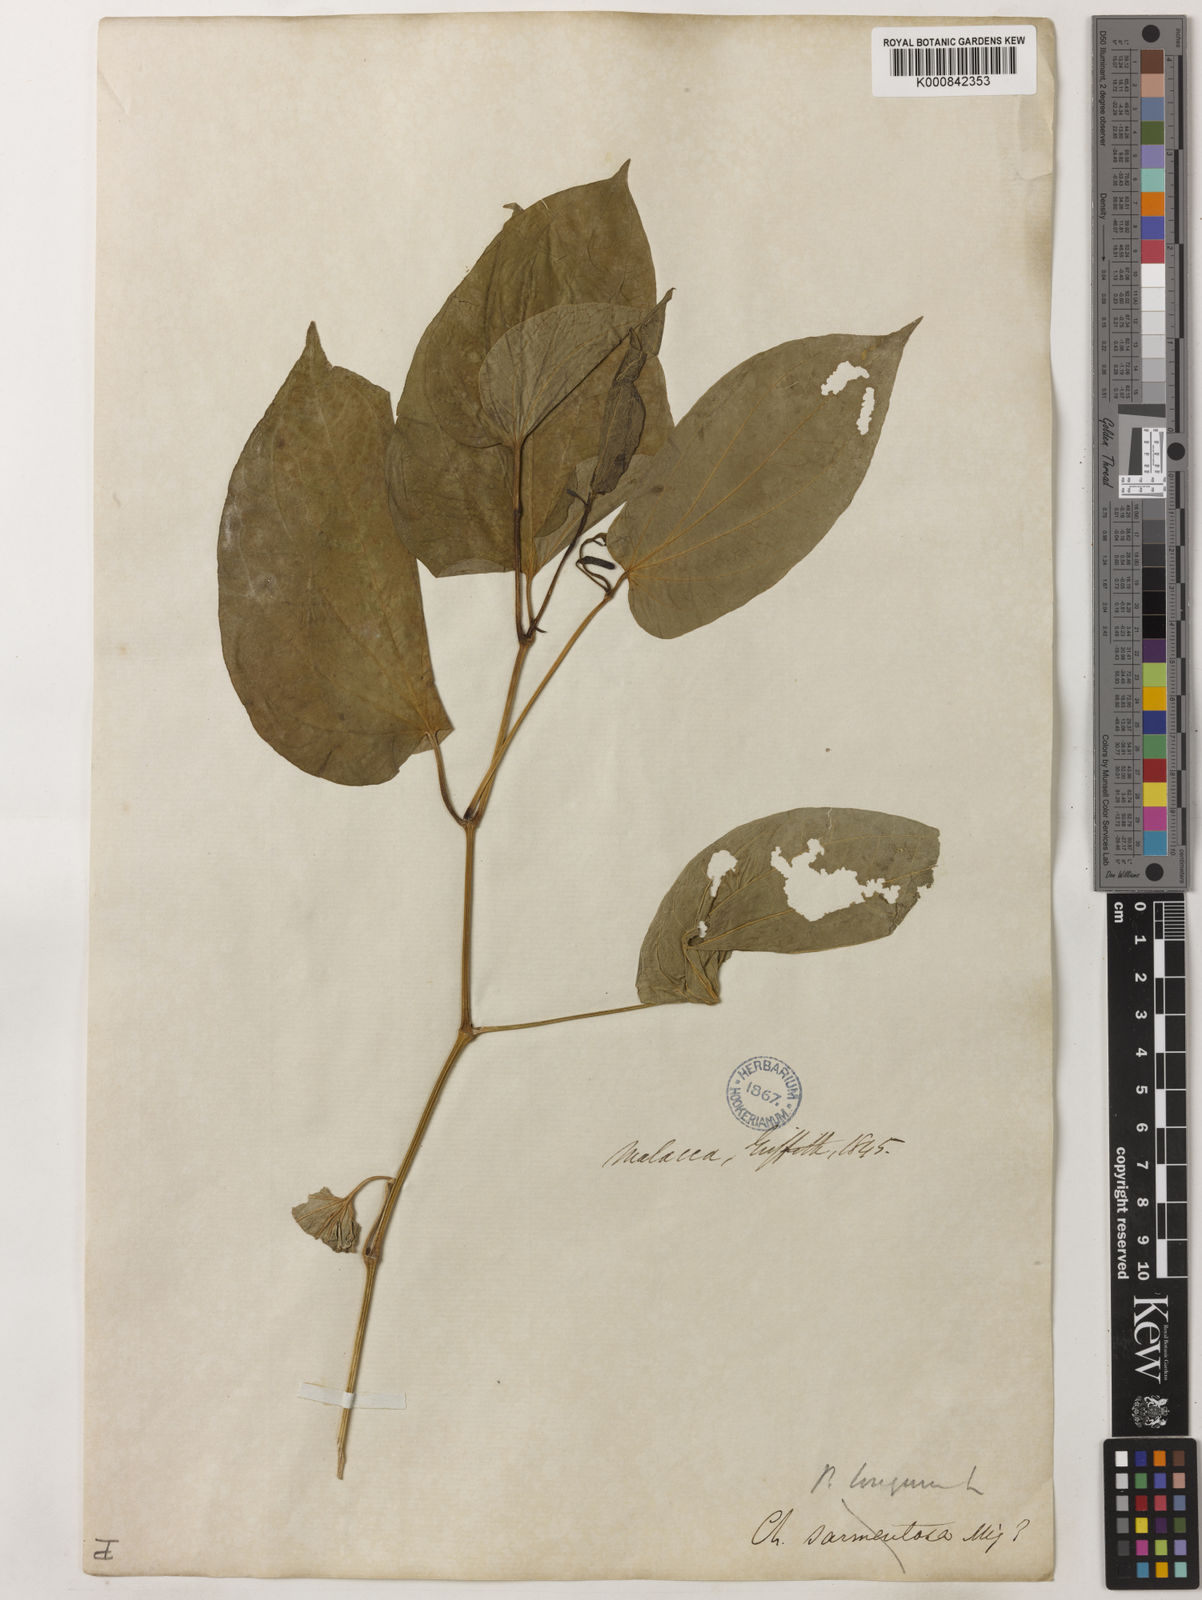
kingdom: Plantae
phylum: Tracheophyta
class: Magnoliopsida
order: Piperales
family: Piperaceae
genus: Piper
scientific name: Piper sarmentosum
